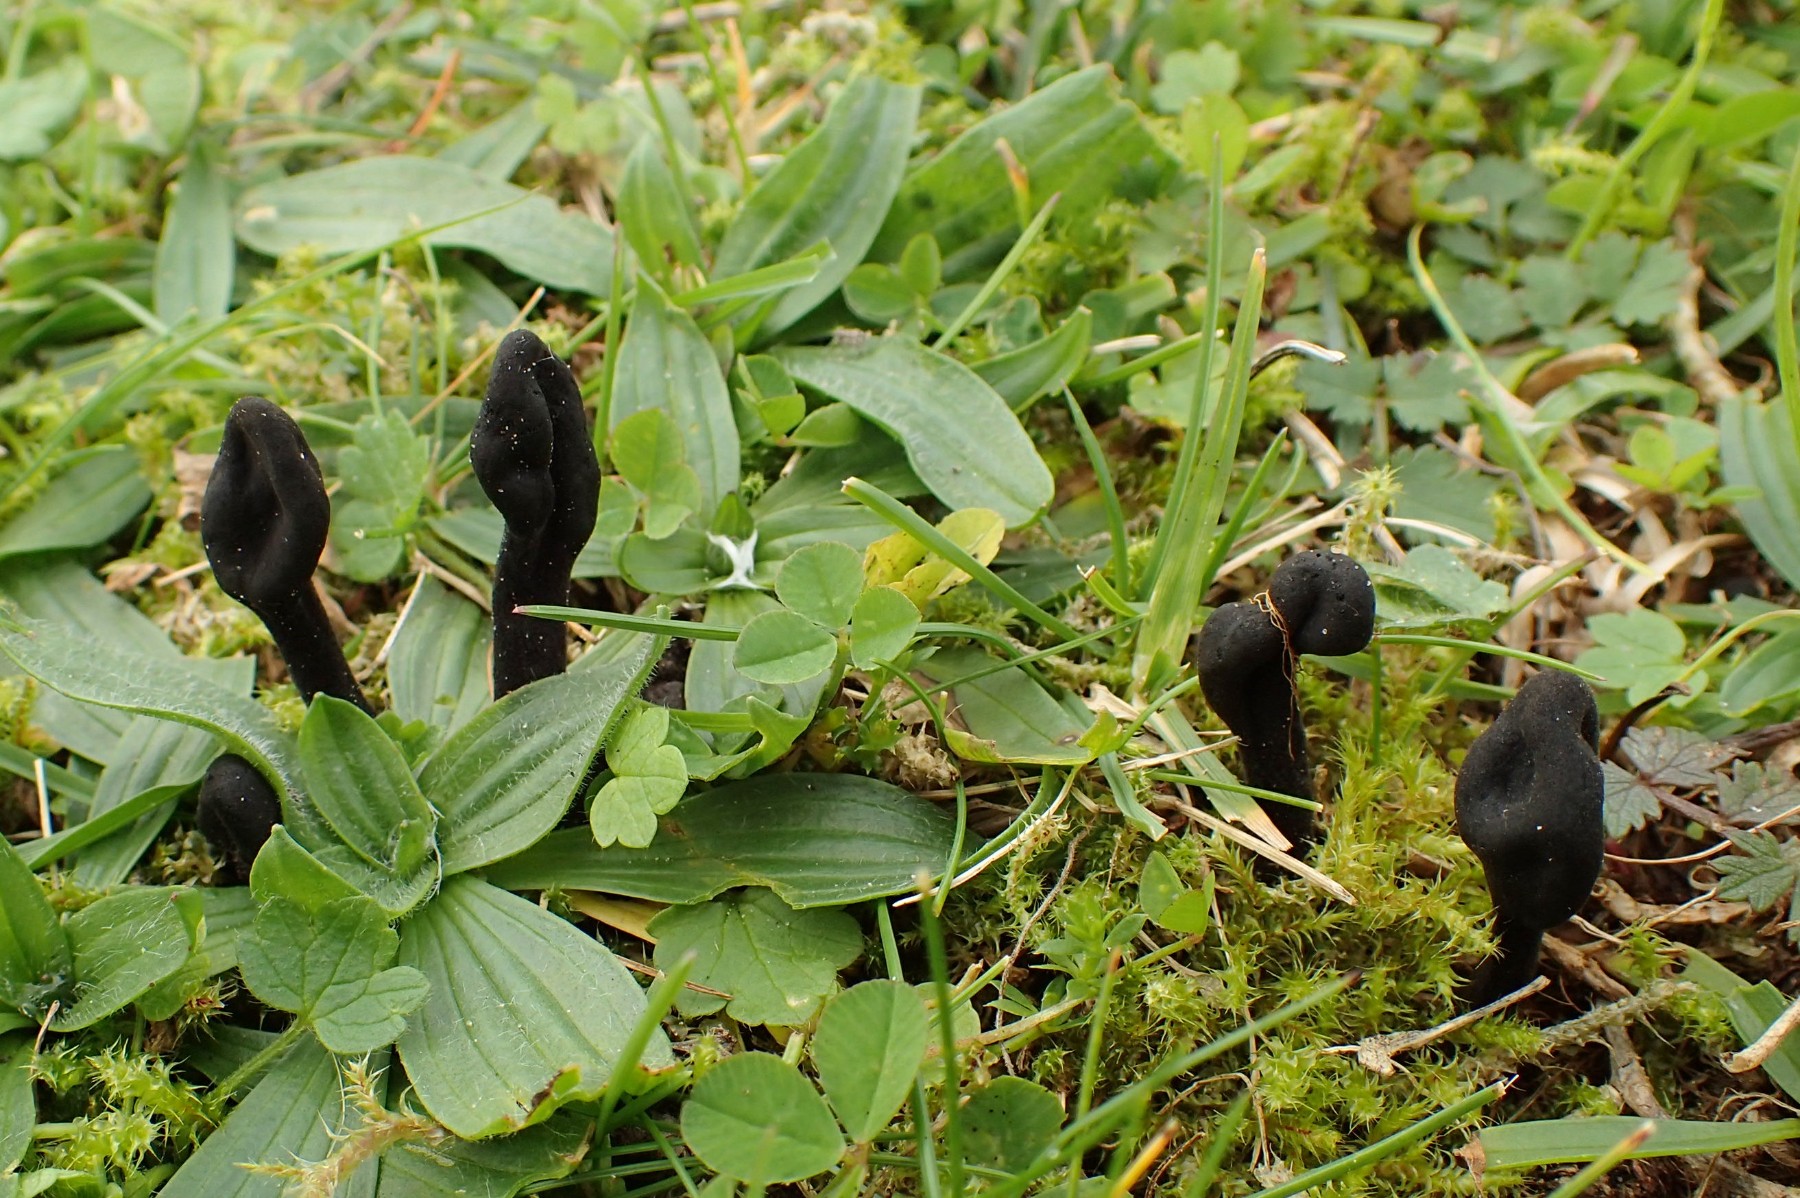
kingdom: Fungi
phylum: Ascomycota
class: Geoglossomycetes
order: Geoglossales
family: Geoglossaceae
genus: Trichoglossum
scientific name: Trichoglossum hirsutum
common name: håret jordtunge
